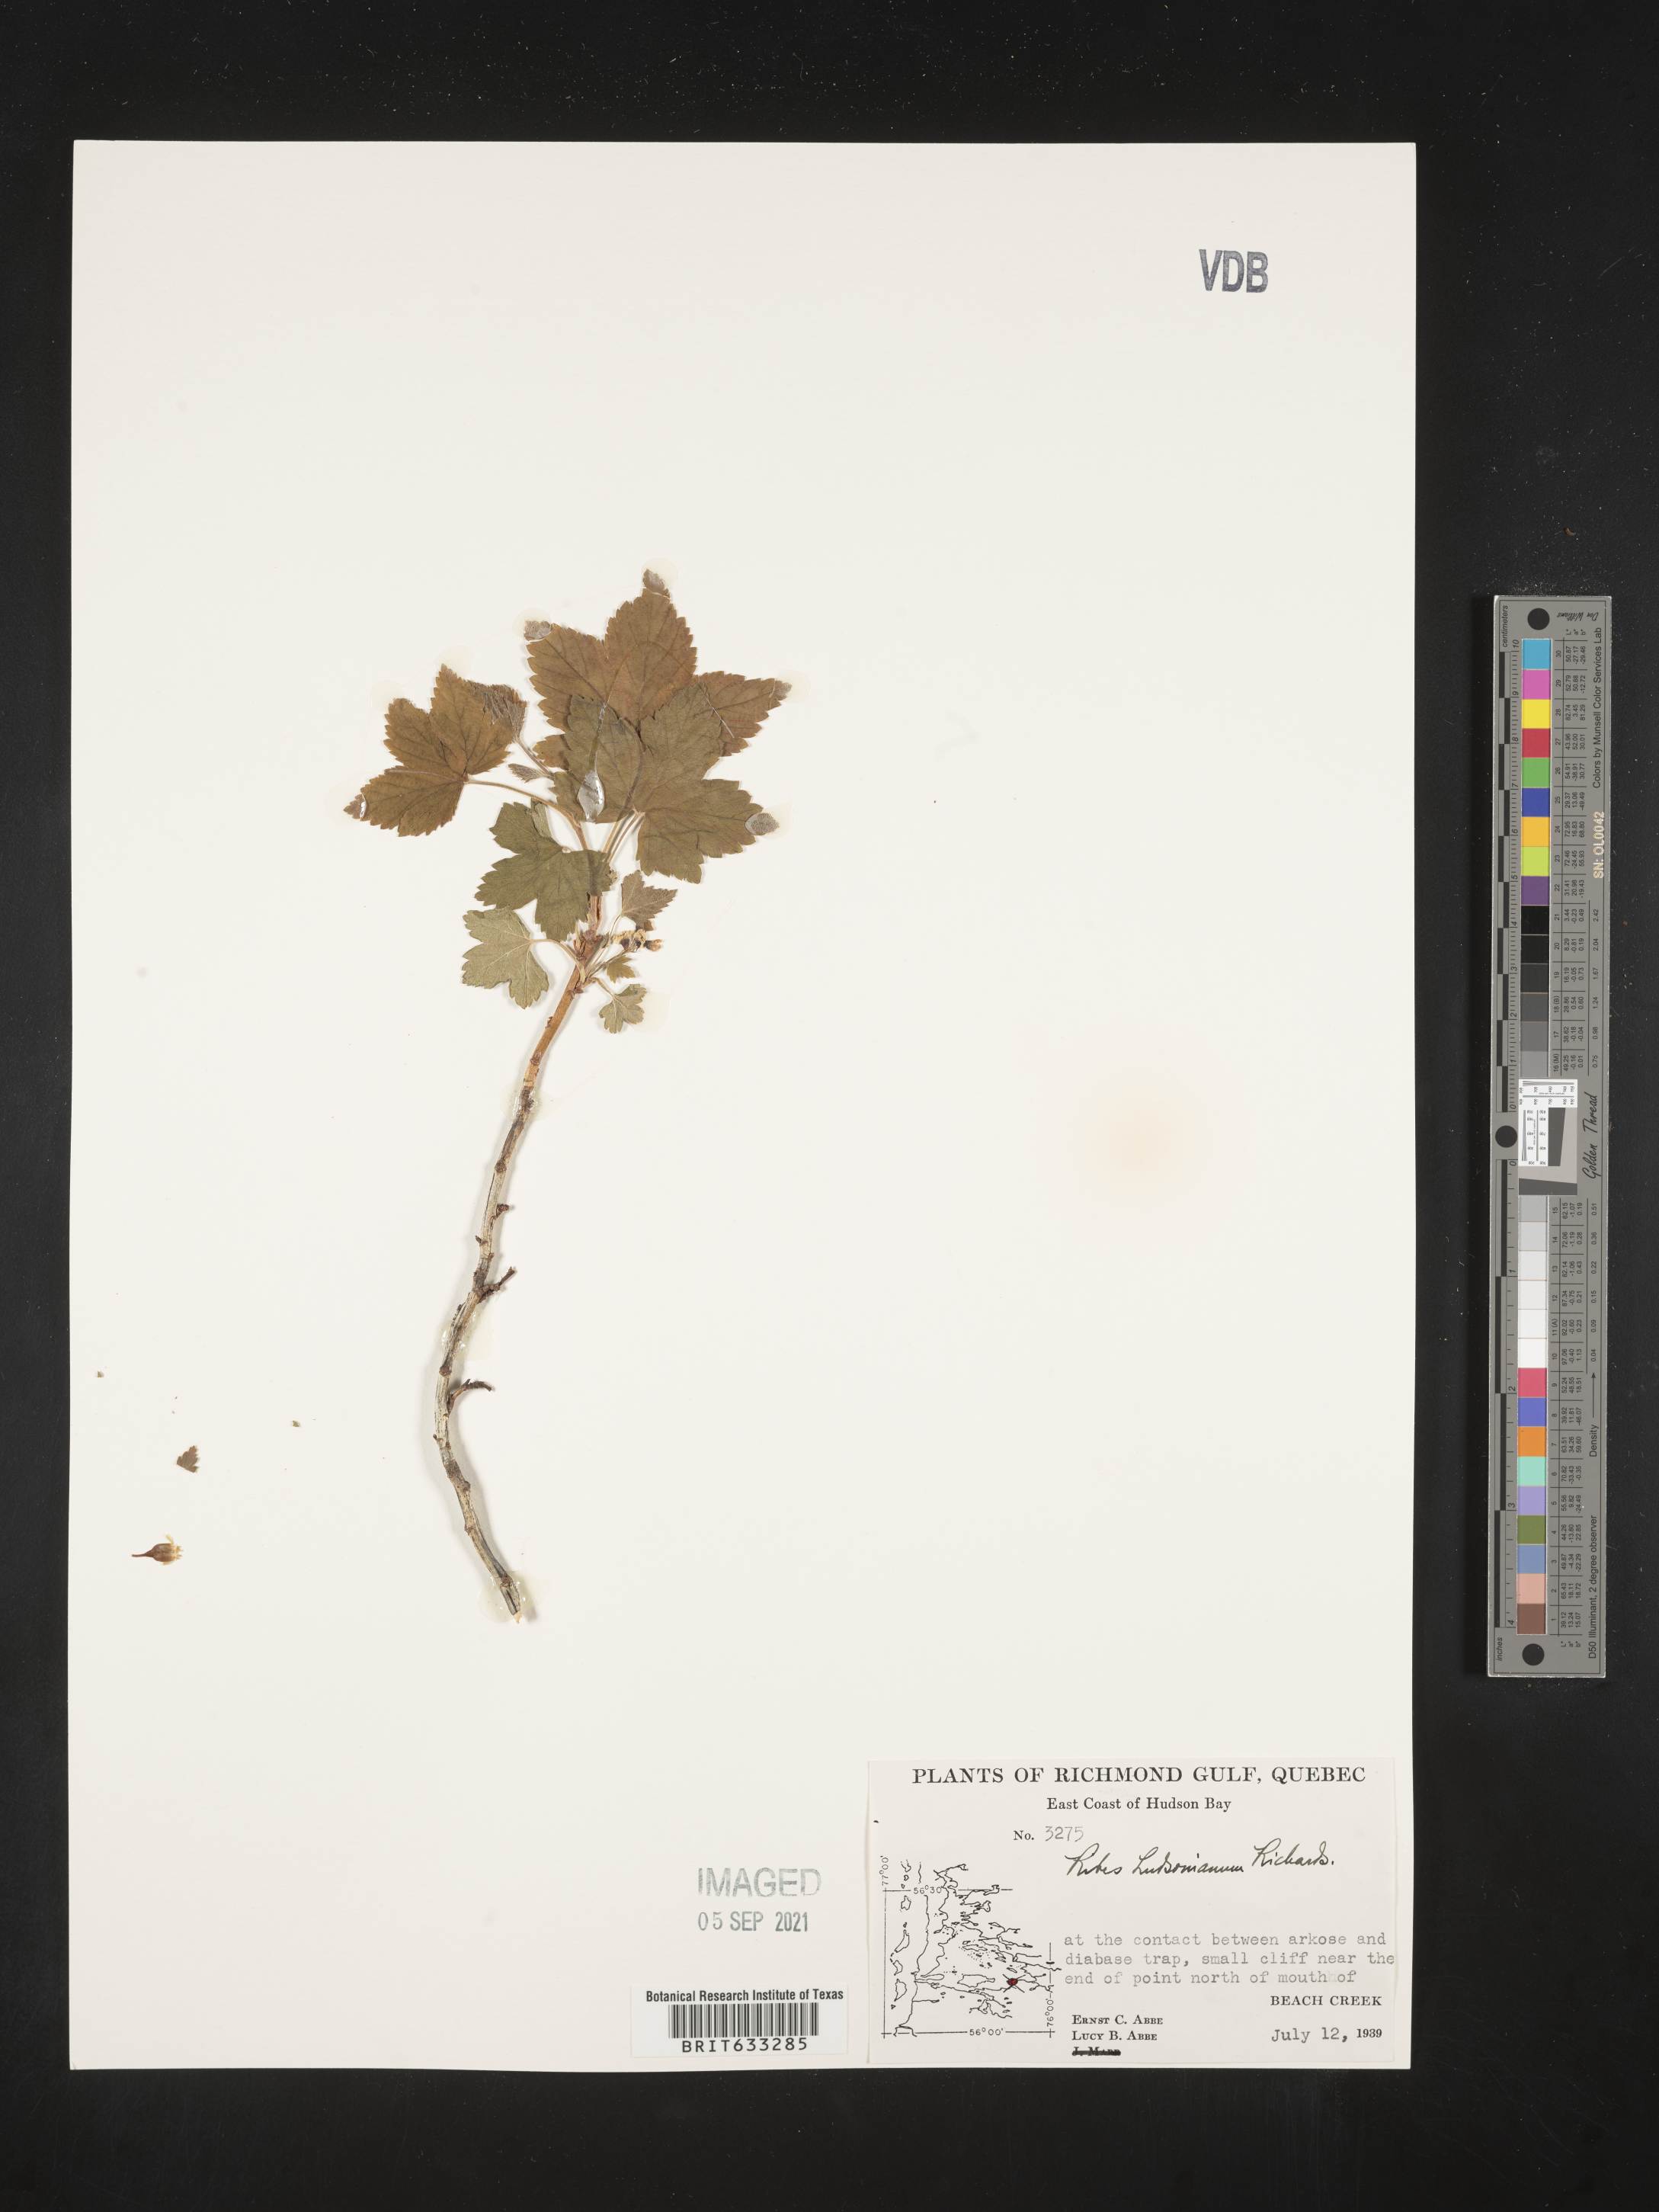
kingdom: Plantae
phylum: Tracheophyta
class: Magnoliopsida
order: Saxifragales
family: Grossulariaceae
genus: Ribes
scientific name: Ribes
